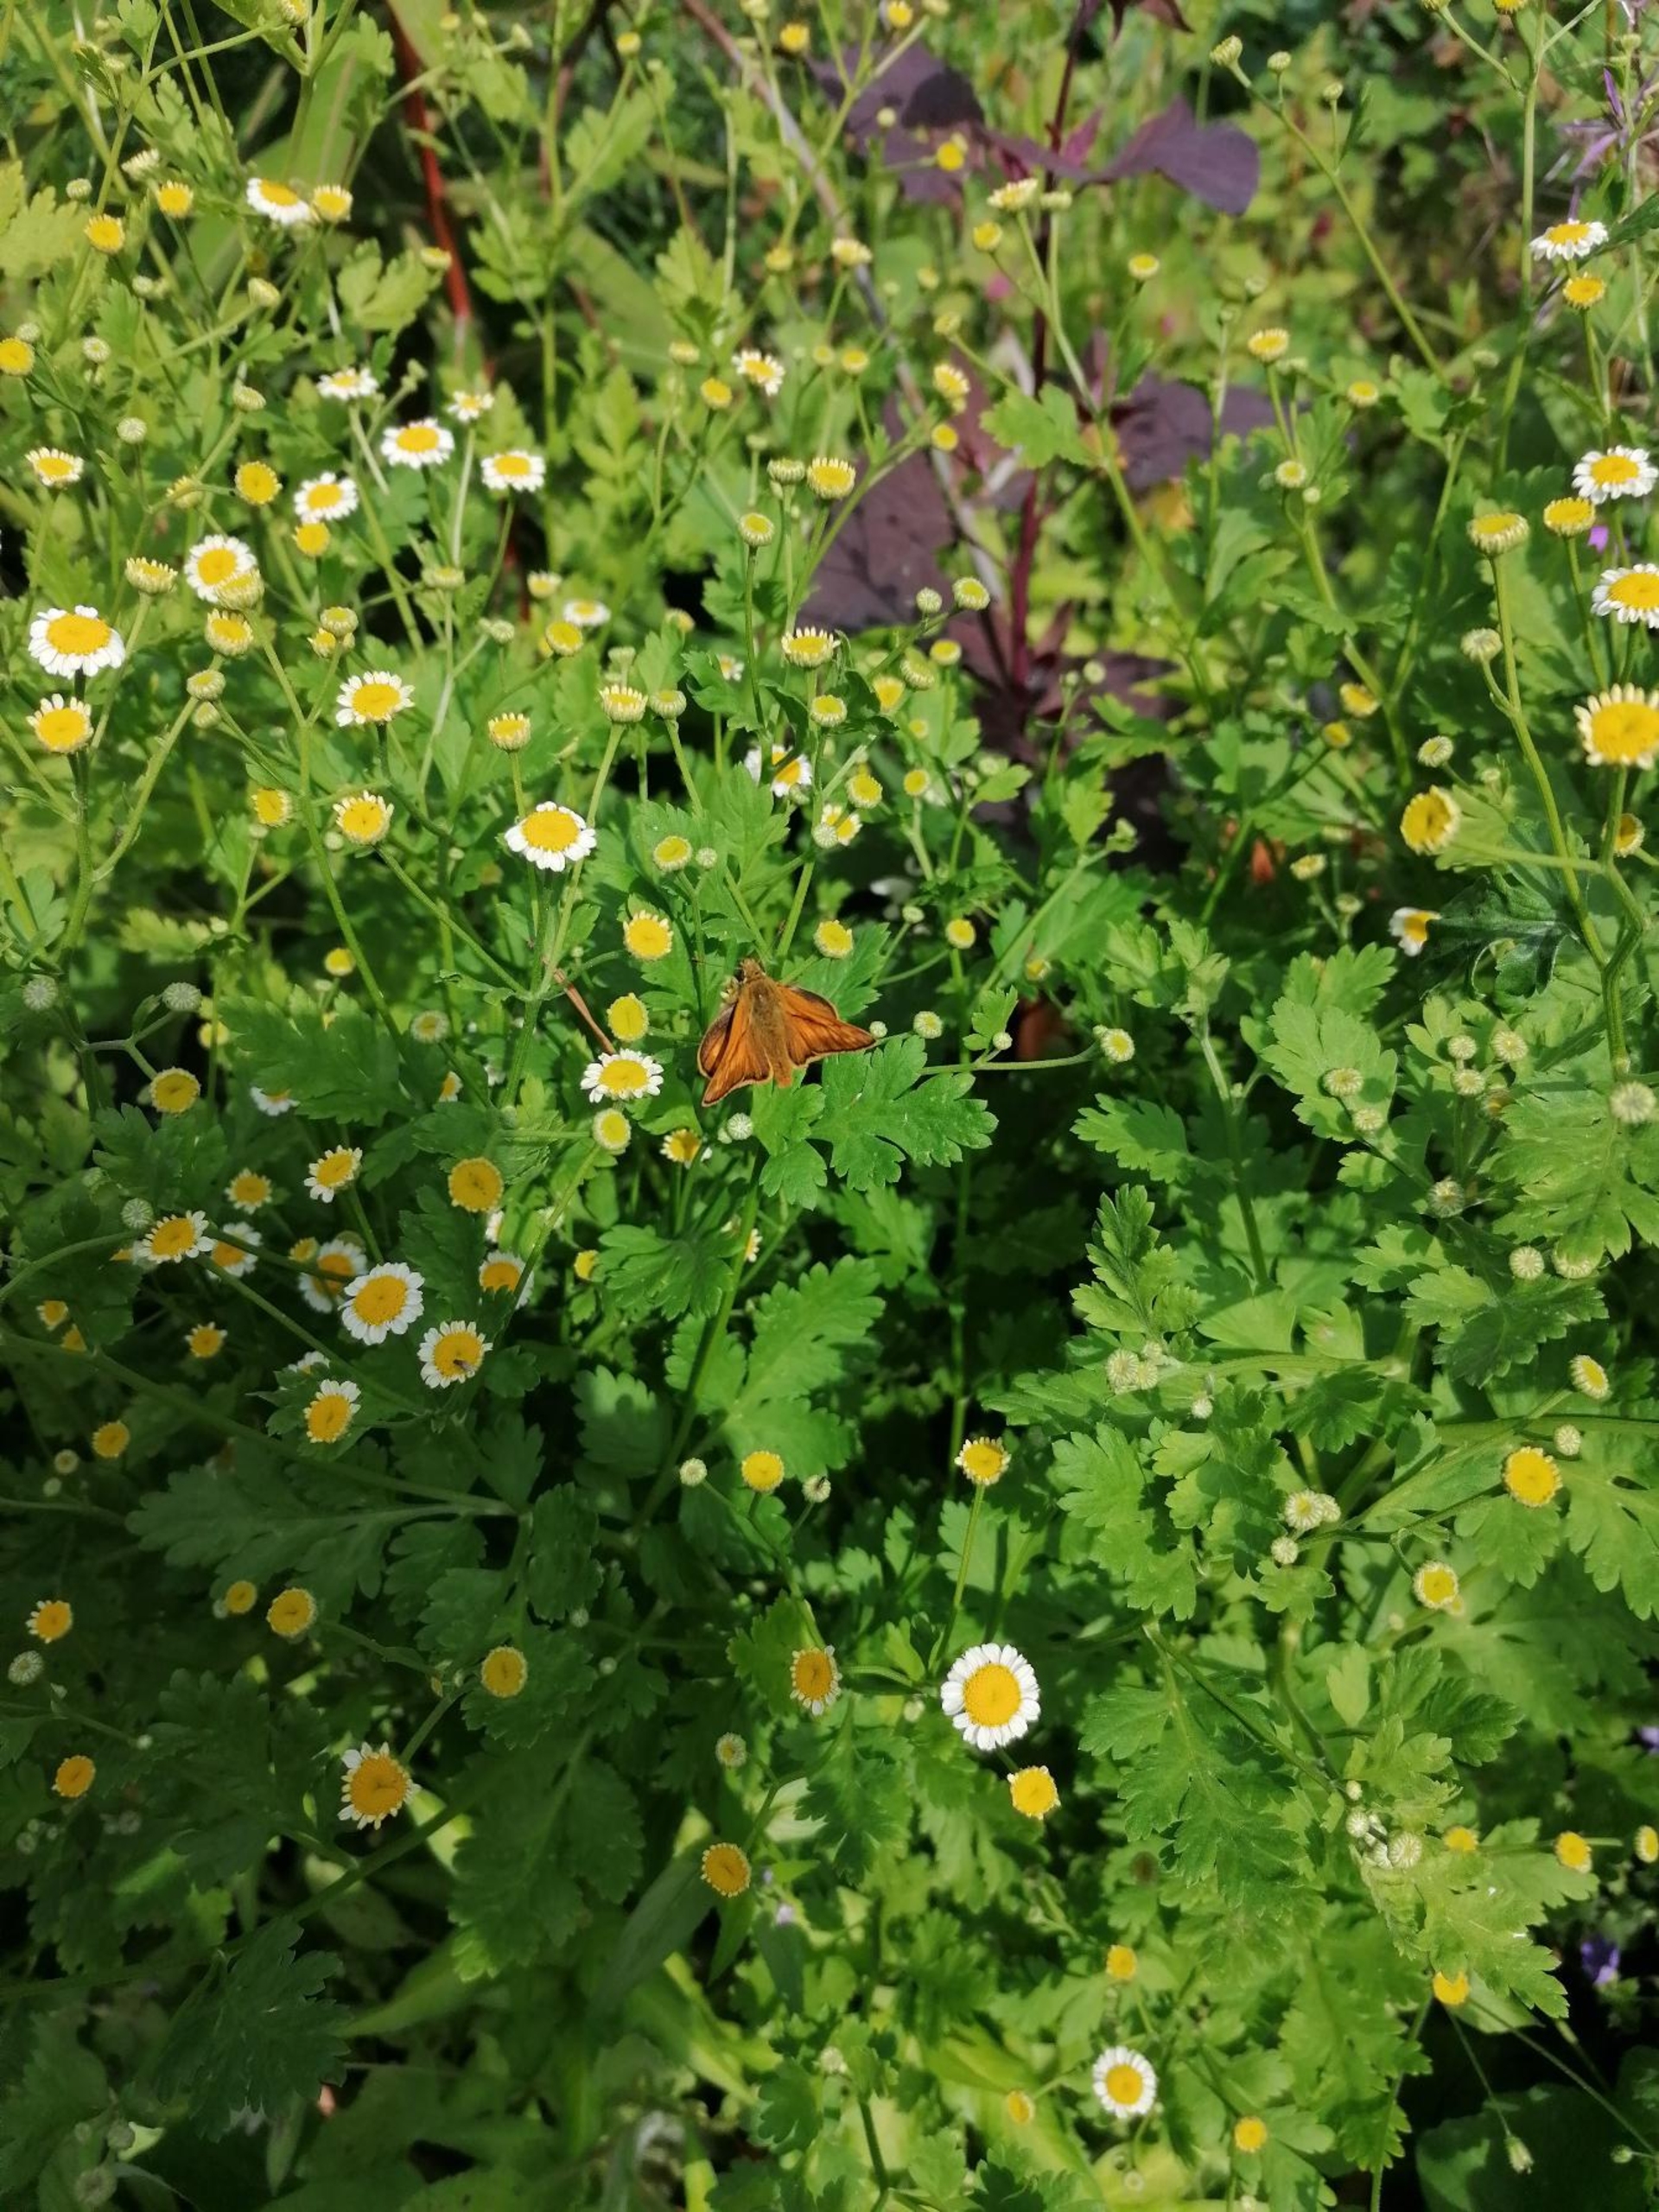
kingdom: Plantae
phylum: Tracheophyta
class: Magnoliopsida
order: Asterales
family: Asteraceae
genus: Tanacetum
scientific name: Tanacetum parthenium
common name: Matrem
